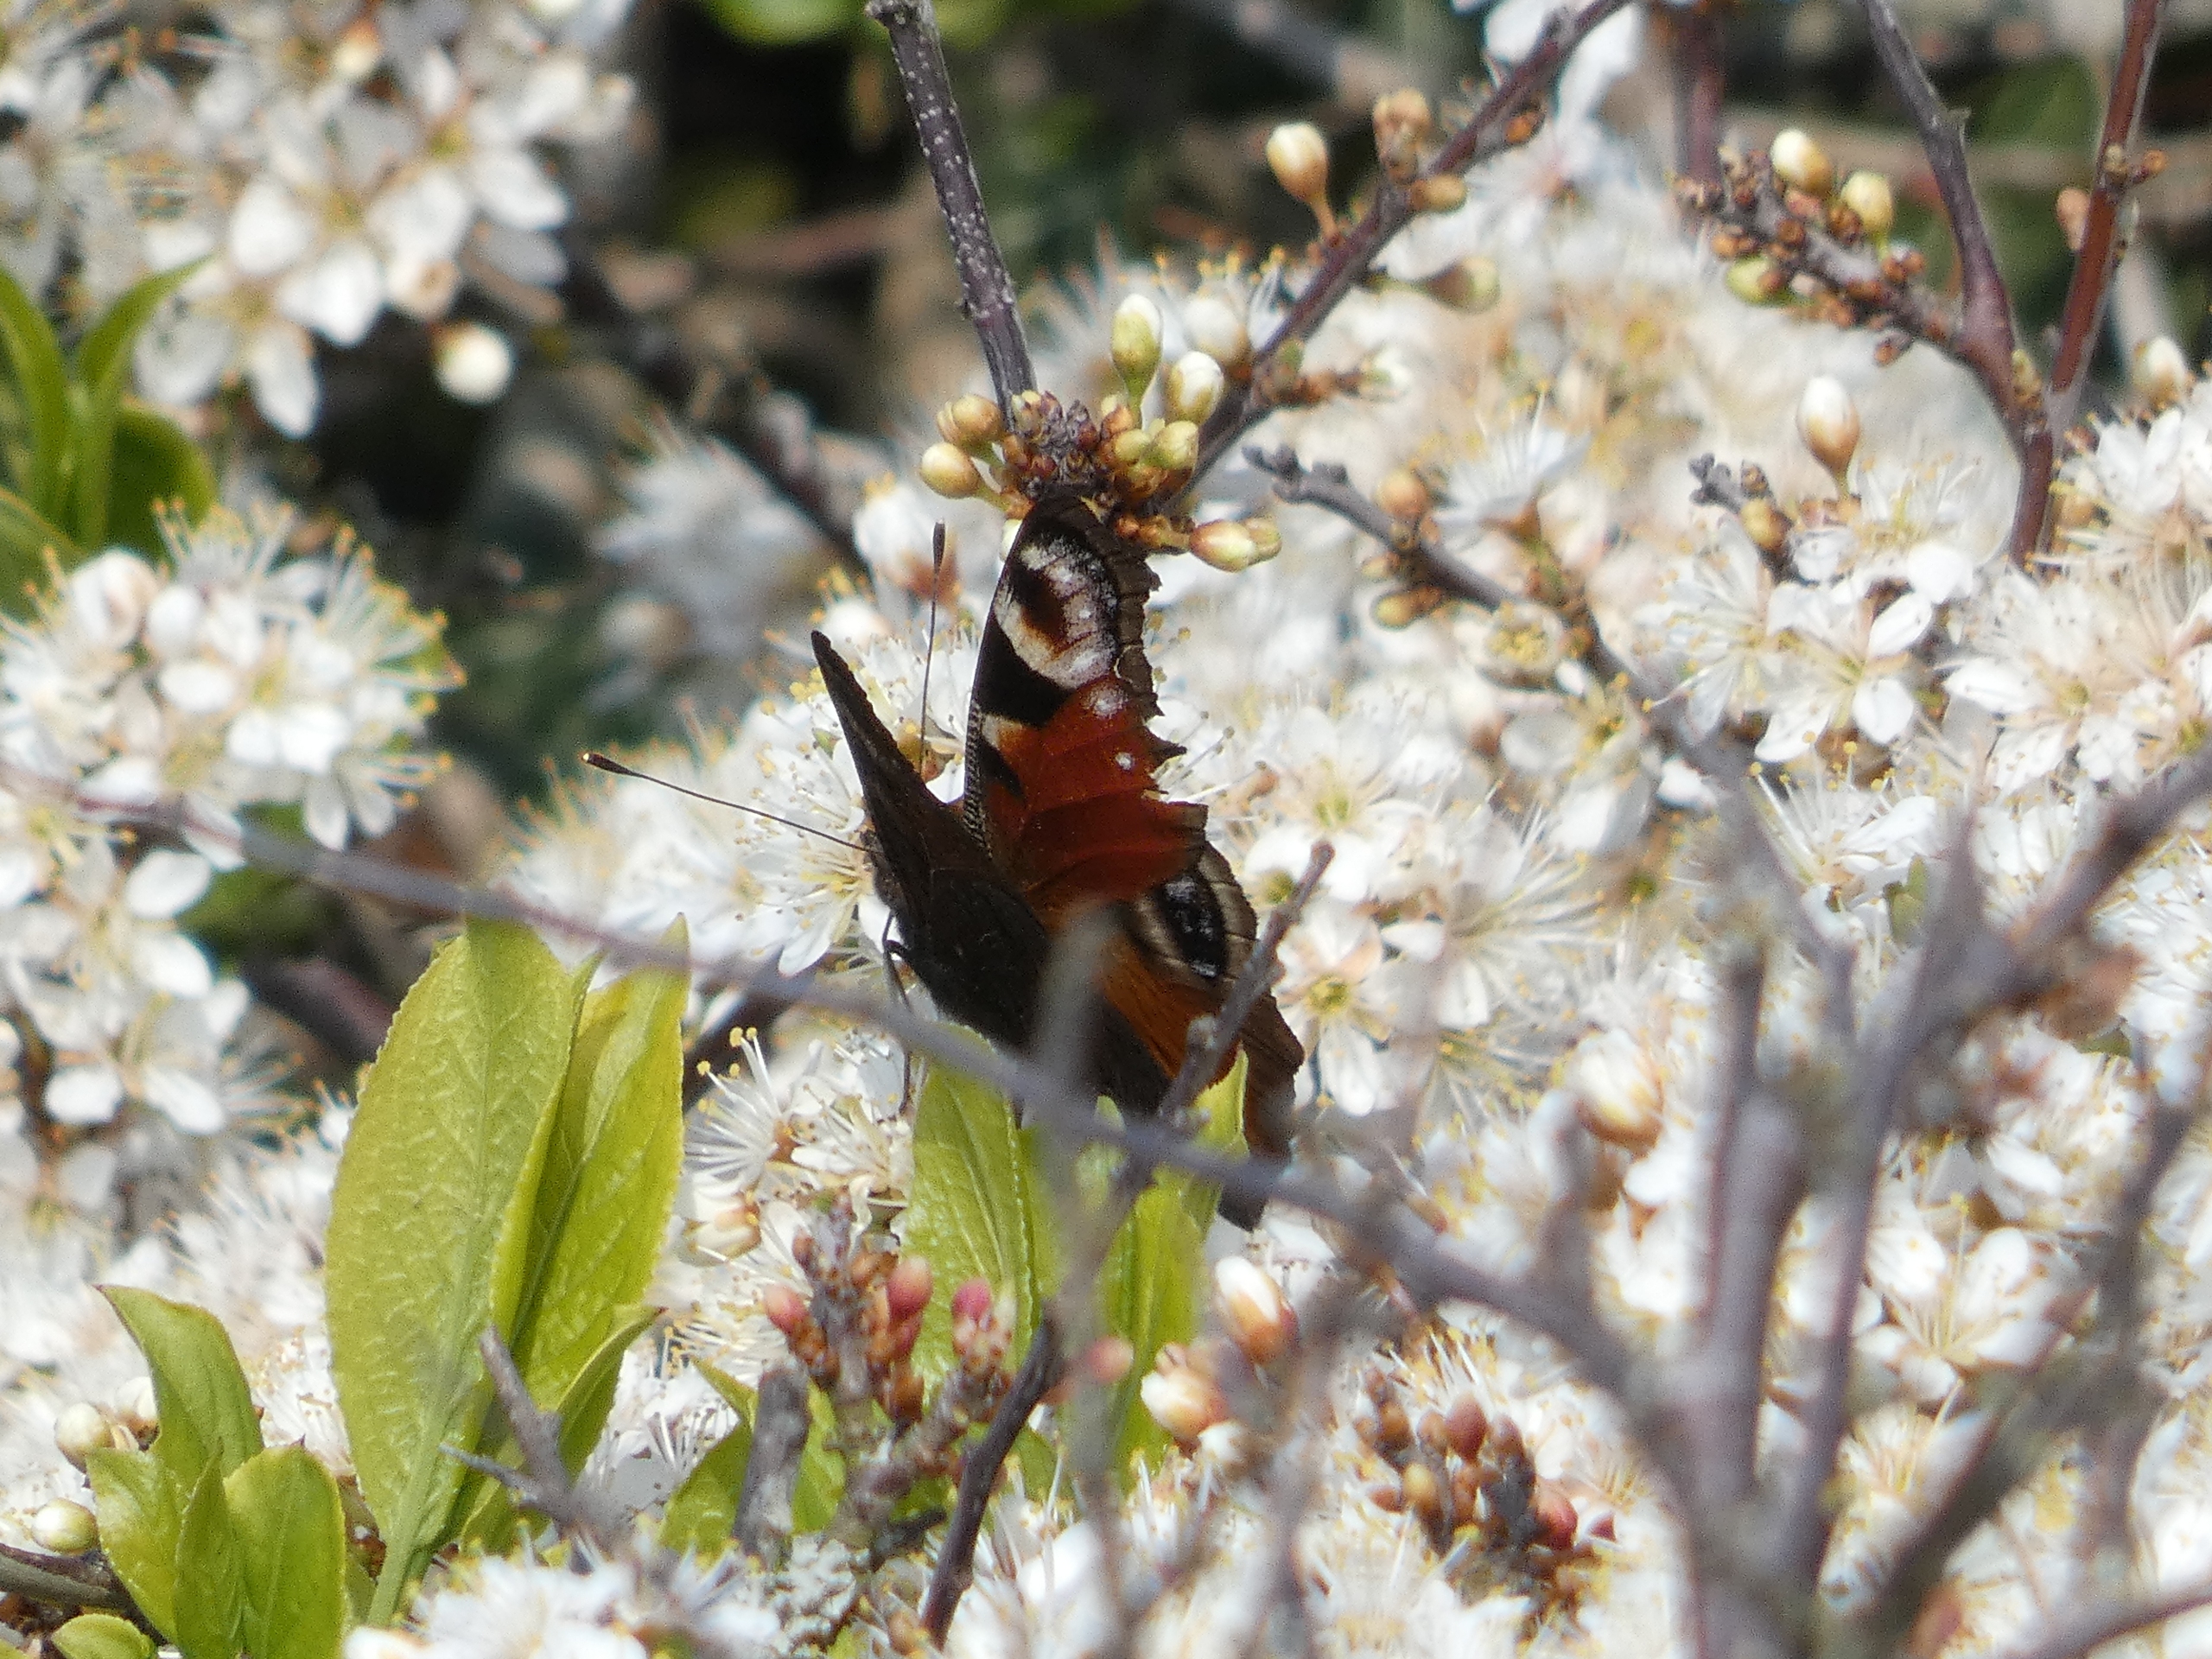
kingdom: Animalia
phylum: Arthropoda
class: Insecta
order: Lepidoptera
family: Nymphalidae
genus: Aglais
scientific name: Aglais io
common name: Dagpåfugleøje
